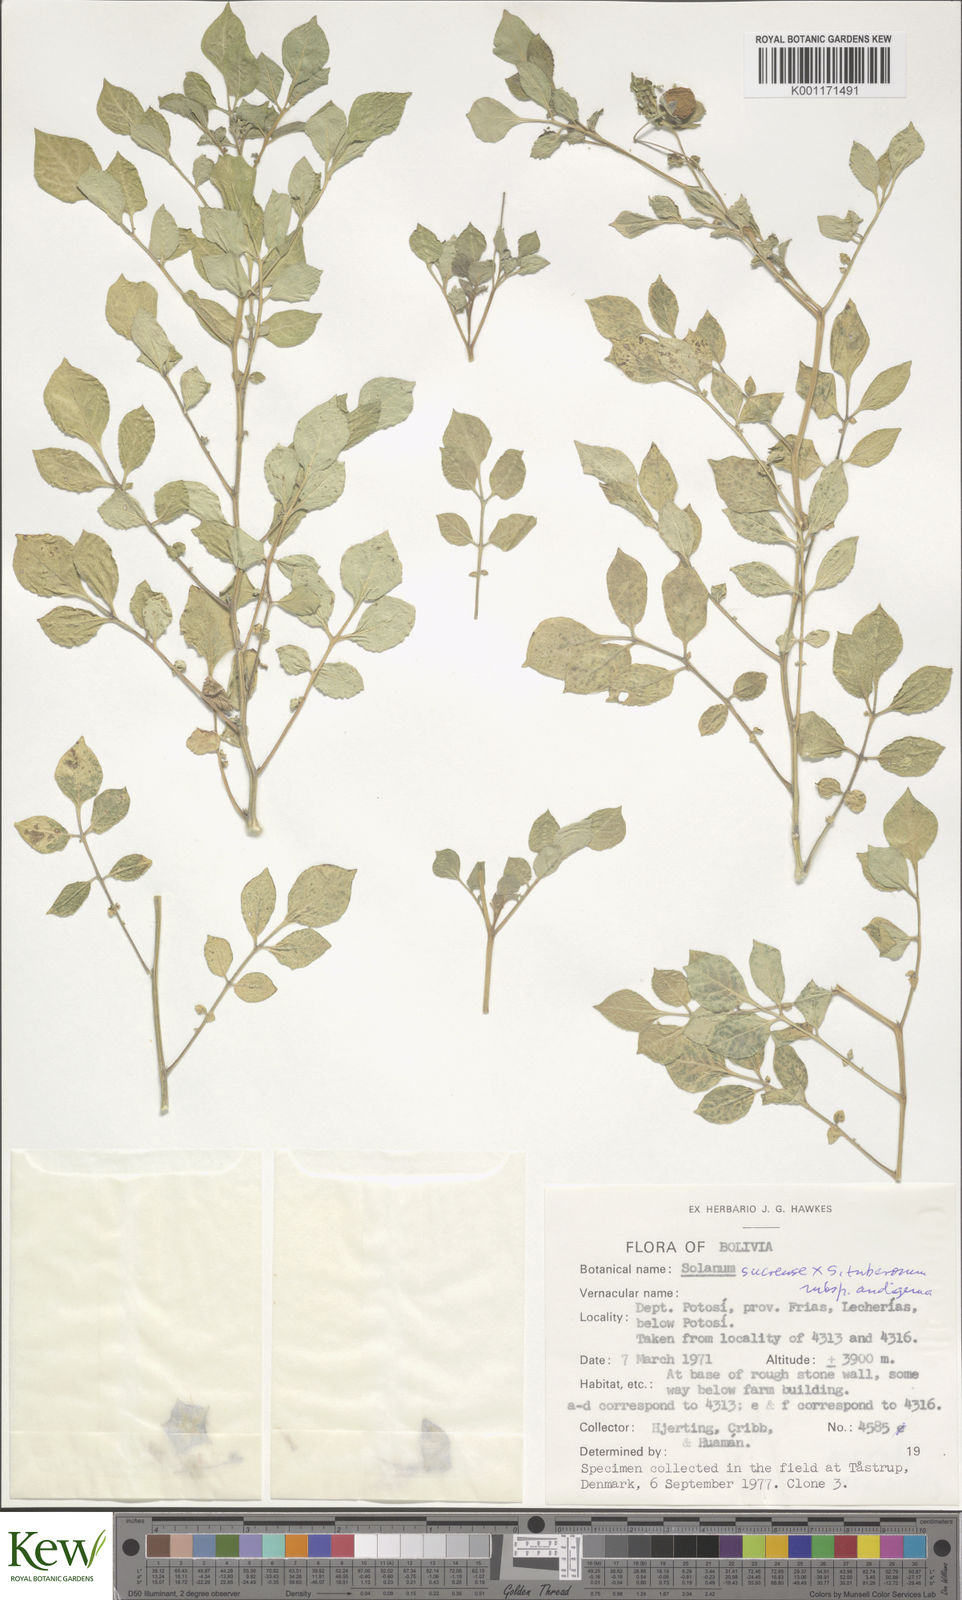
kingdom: Plantae
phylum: Tracheophyta
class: Magnoliopsida
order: Solanales
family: Solanaceae
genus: Solanum
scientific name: Solanum tuberosum
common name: Potato
